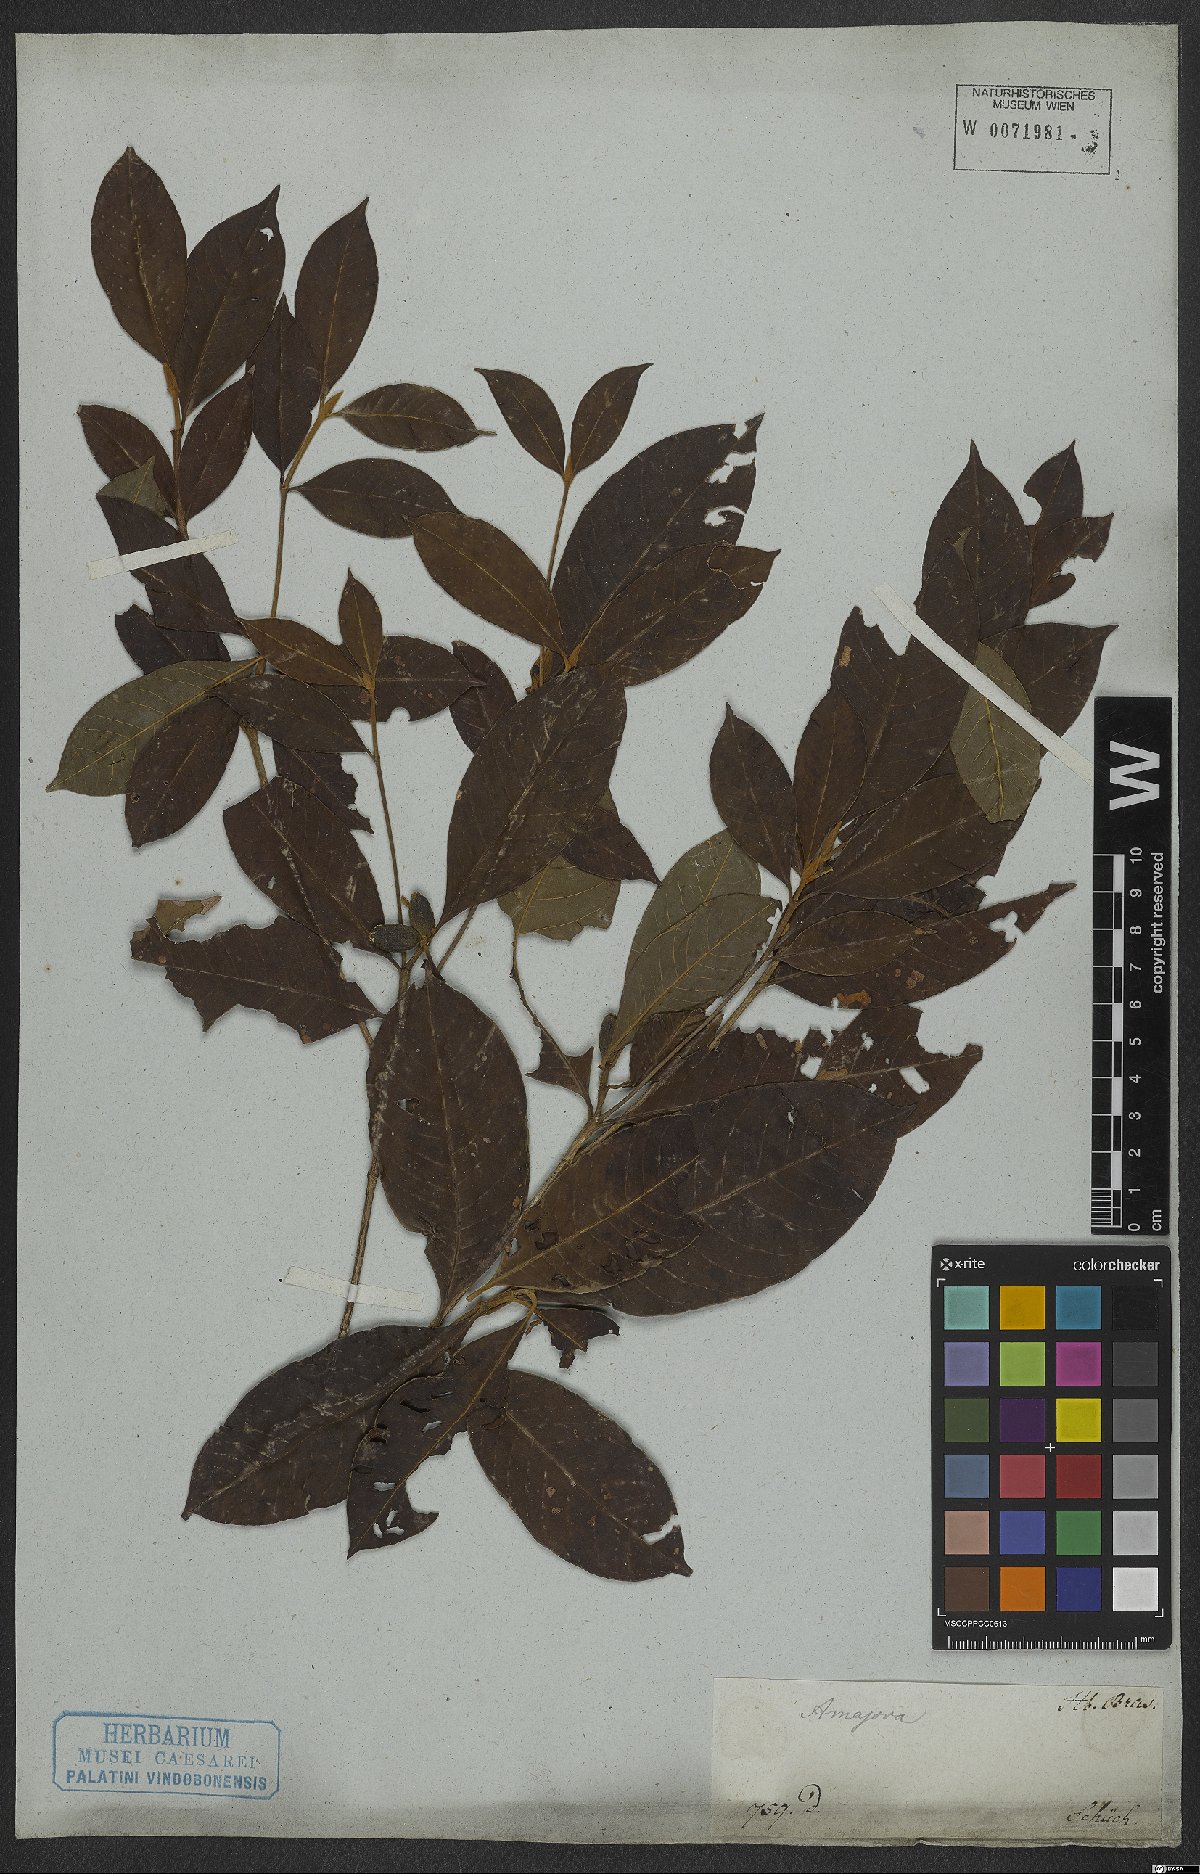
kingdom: Plantae
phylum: Tracheophyta
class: Magnoliopsida
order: Gentianales
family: Rubiaceae
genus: Amaioua
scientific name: Amaioua
